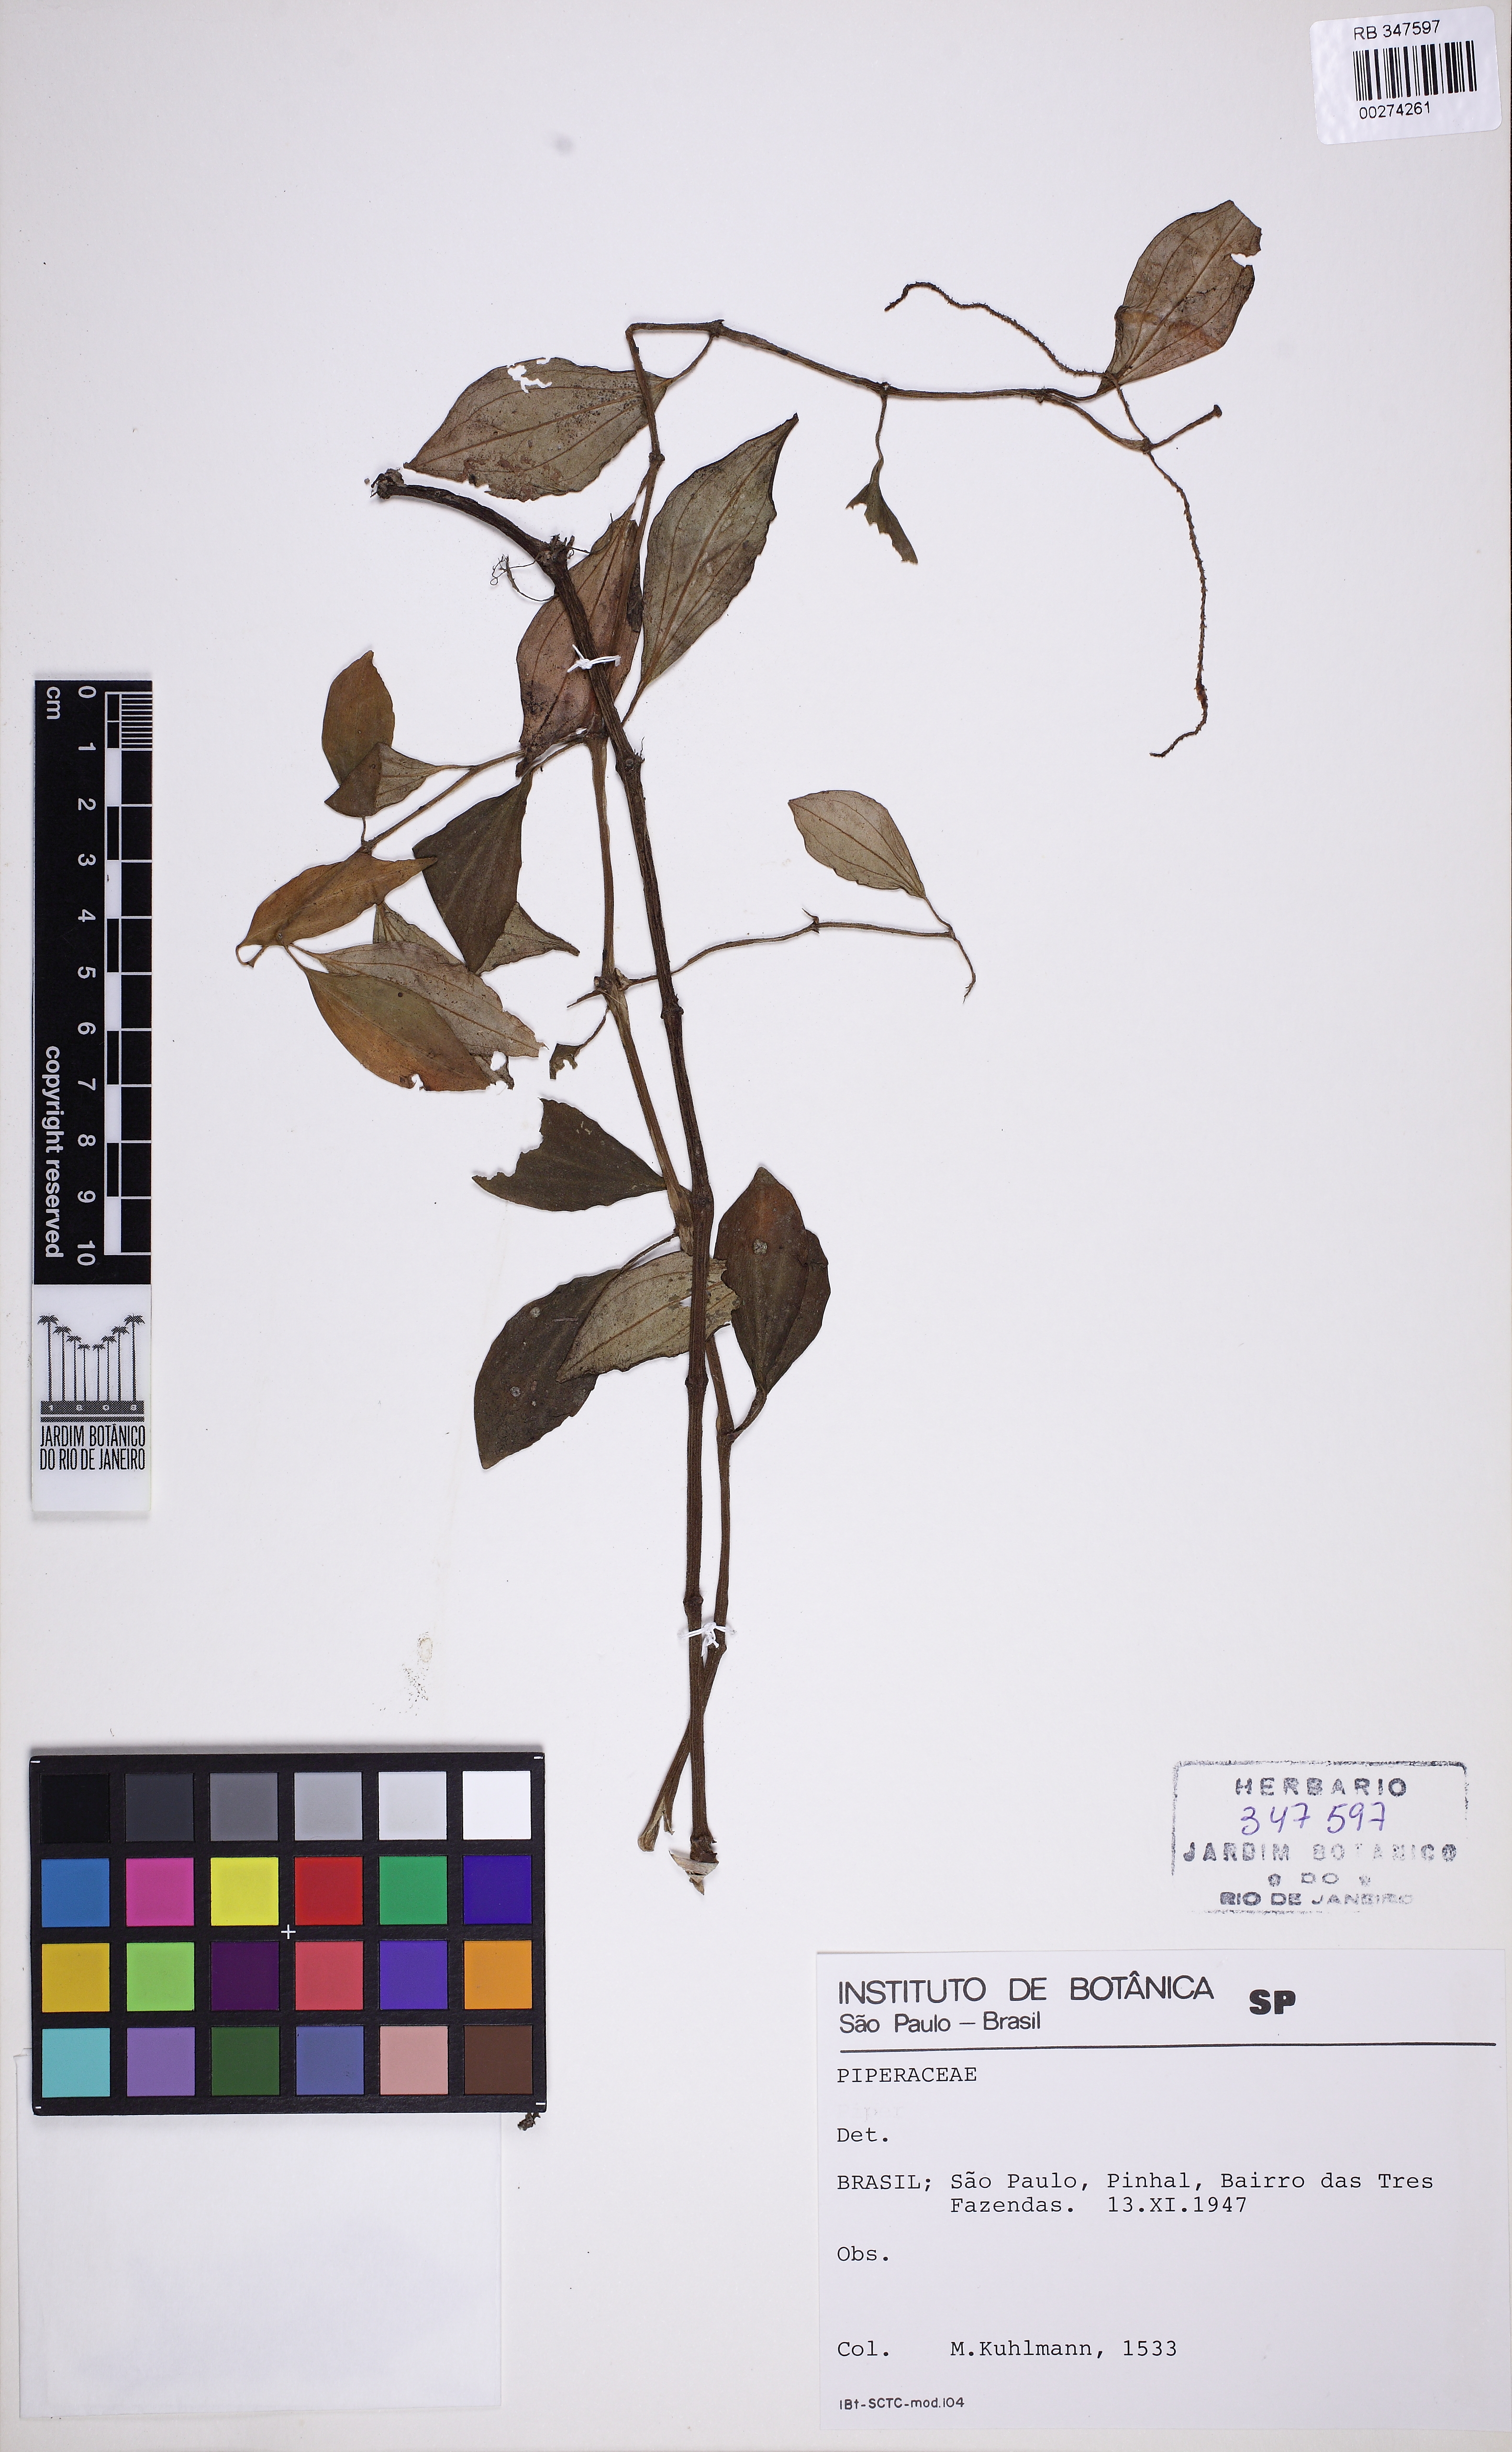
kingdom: Plantae
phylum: Tracheophyta
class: Magnoliopsida
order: Piperales
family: Piperaceae
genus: Peperomia
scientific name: Peperomia blanda
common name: Arid-land peperomia
